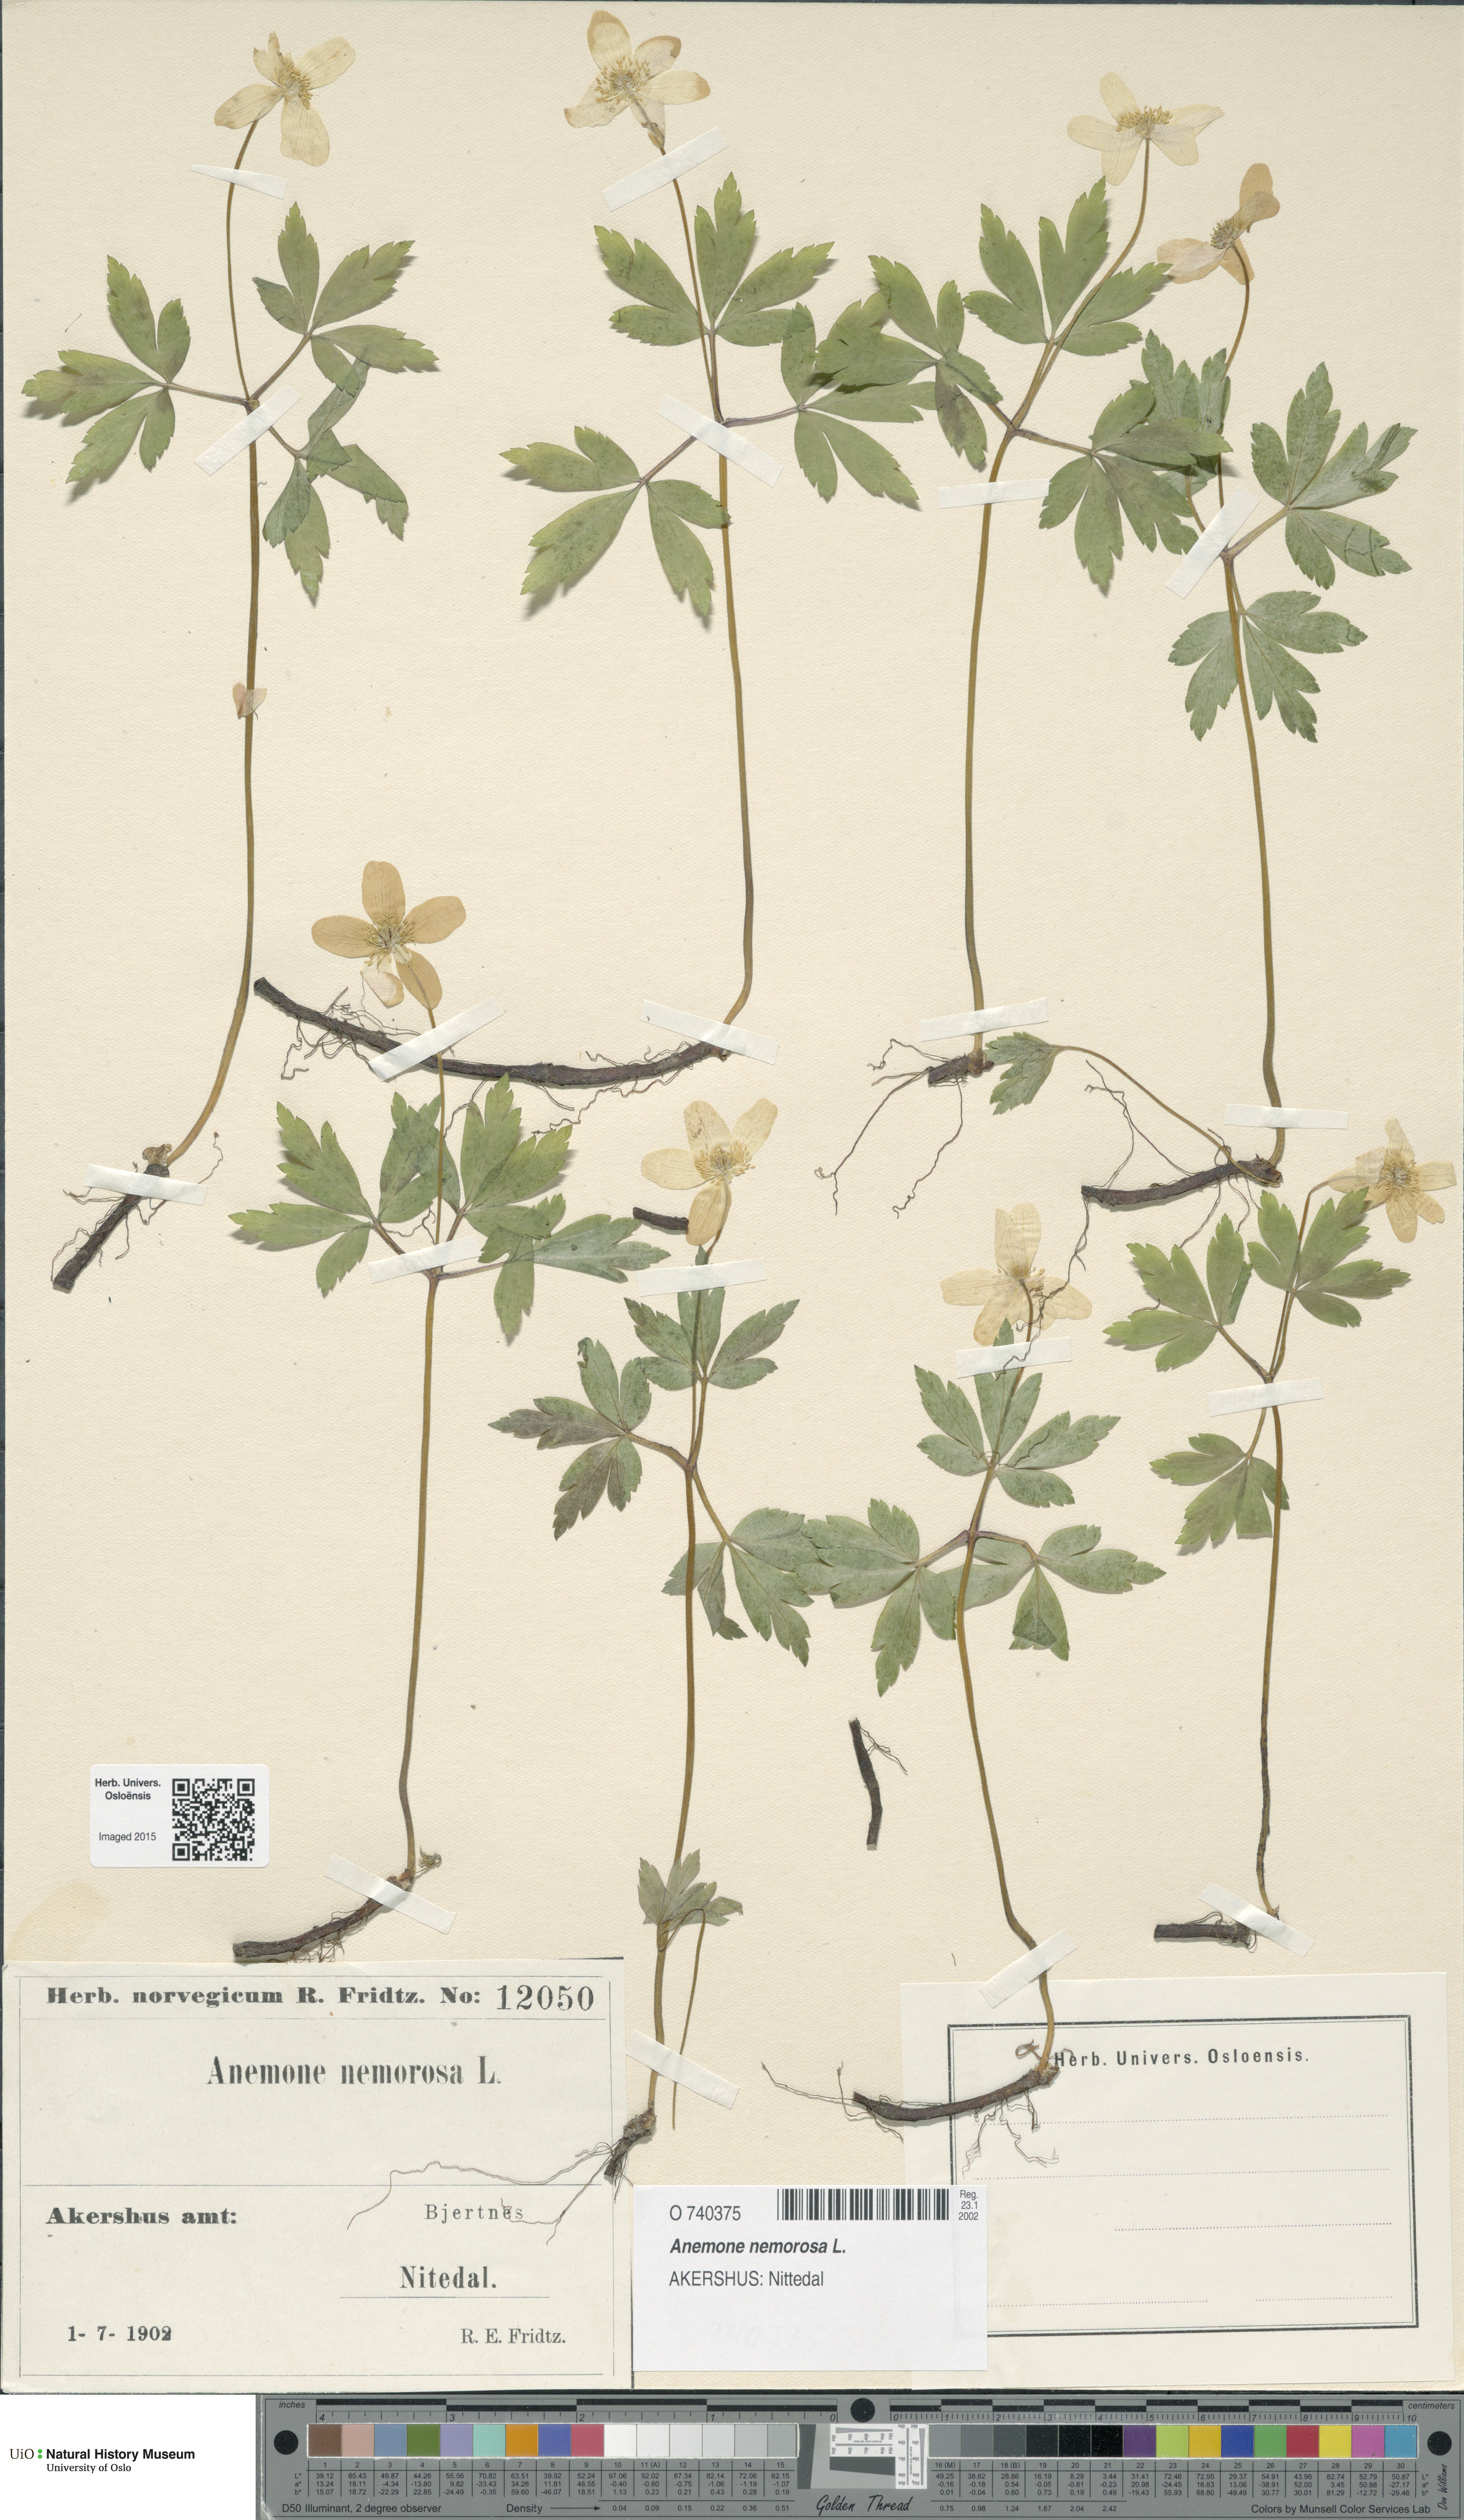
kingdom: Plantae
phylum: Tracheophyta
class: Magnoliopsida
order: Ranunculales
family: Ranunculaceae
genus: Anemone
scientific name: Anemone nemorosa
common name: Wood anemone
